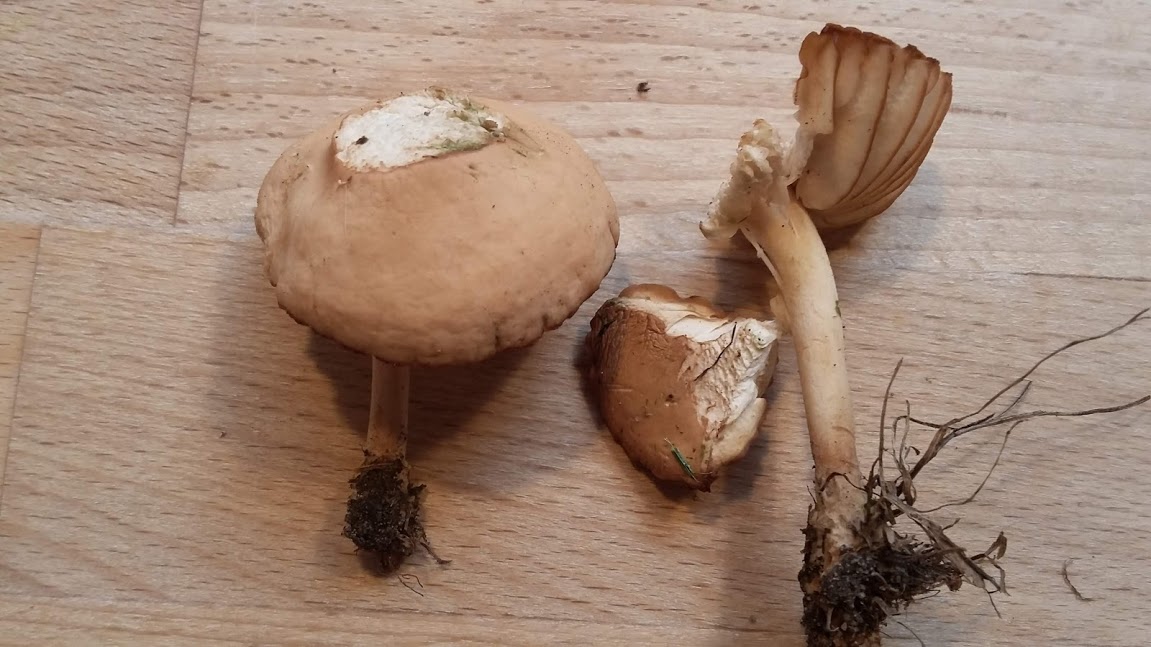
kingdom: Fungi
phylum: Basidiomycota
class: Agaricomycetes
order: Agaricales
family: Marasmiaceae
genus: Marasmius
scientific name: Marasmius oreades
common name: elledans-bruskhat
